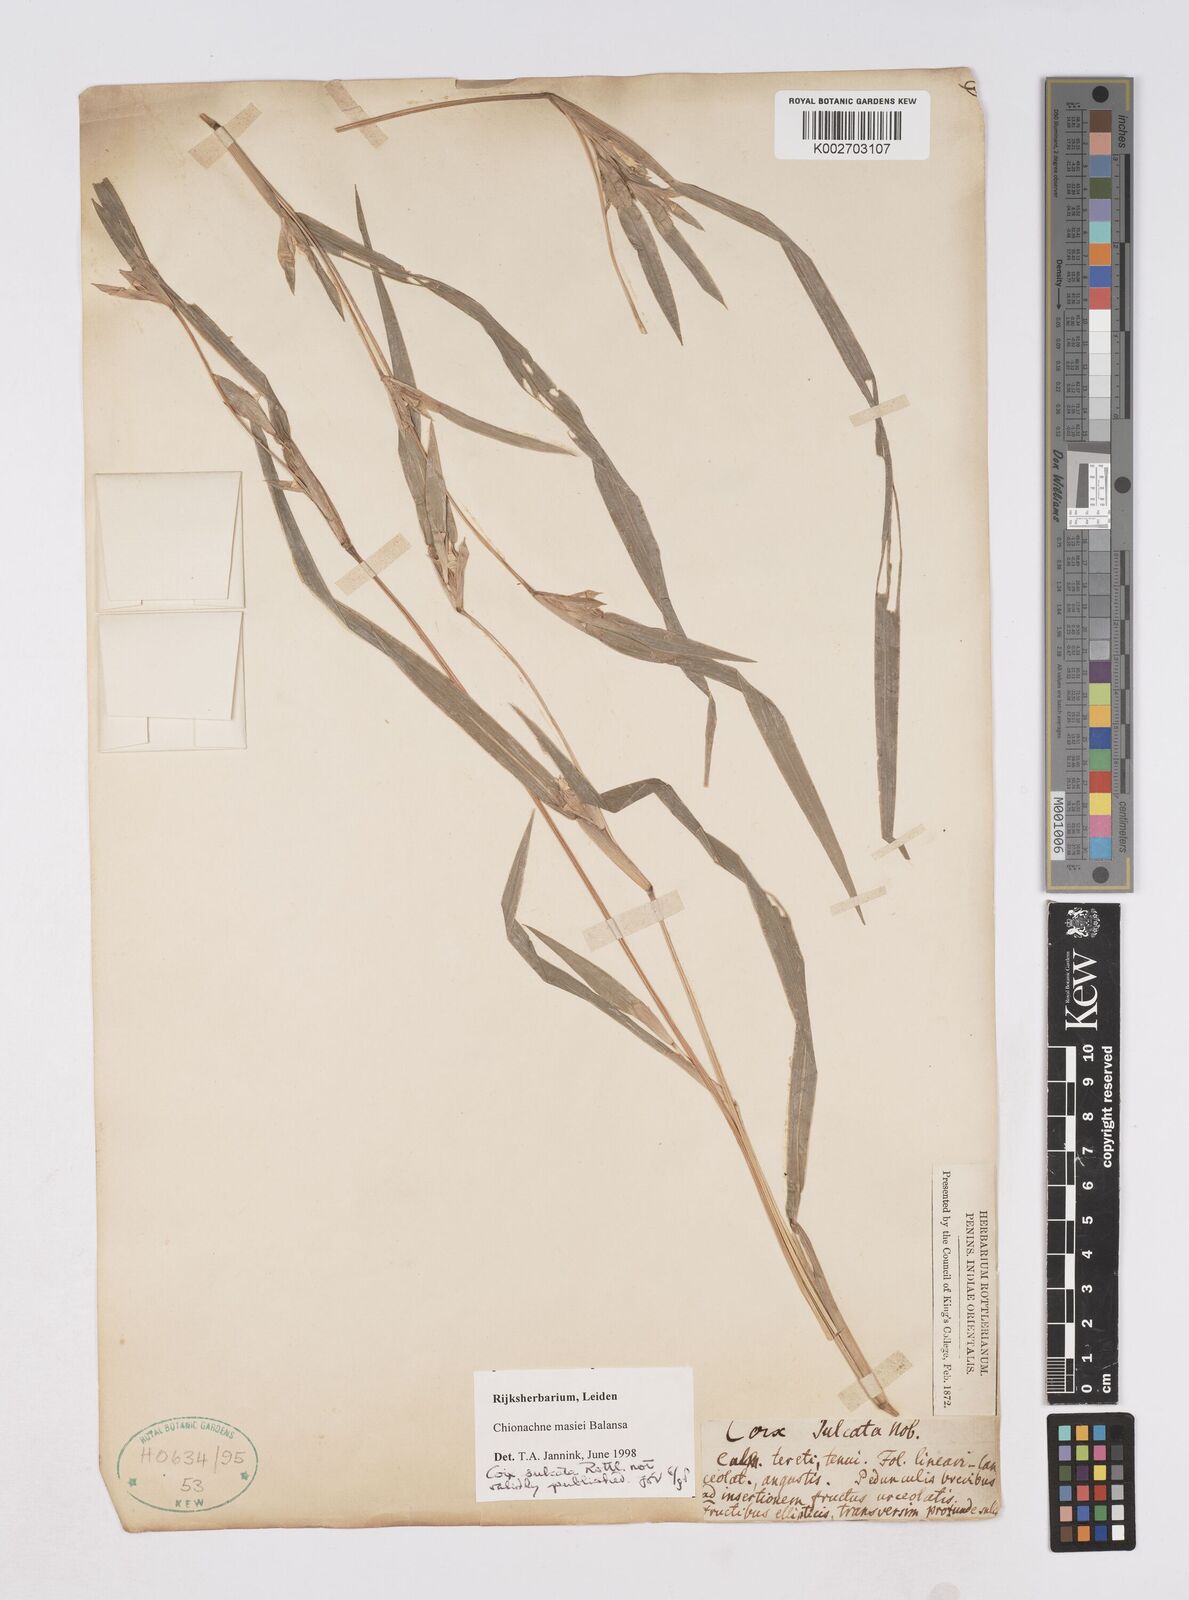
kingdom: Plantae
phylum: Tracheophyta
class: Liliopsida
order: Poales
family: Poaceae
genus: Polytoca
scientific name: Polytoca punctata
